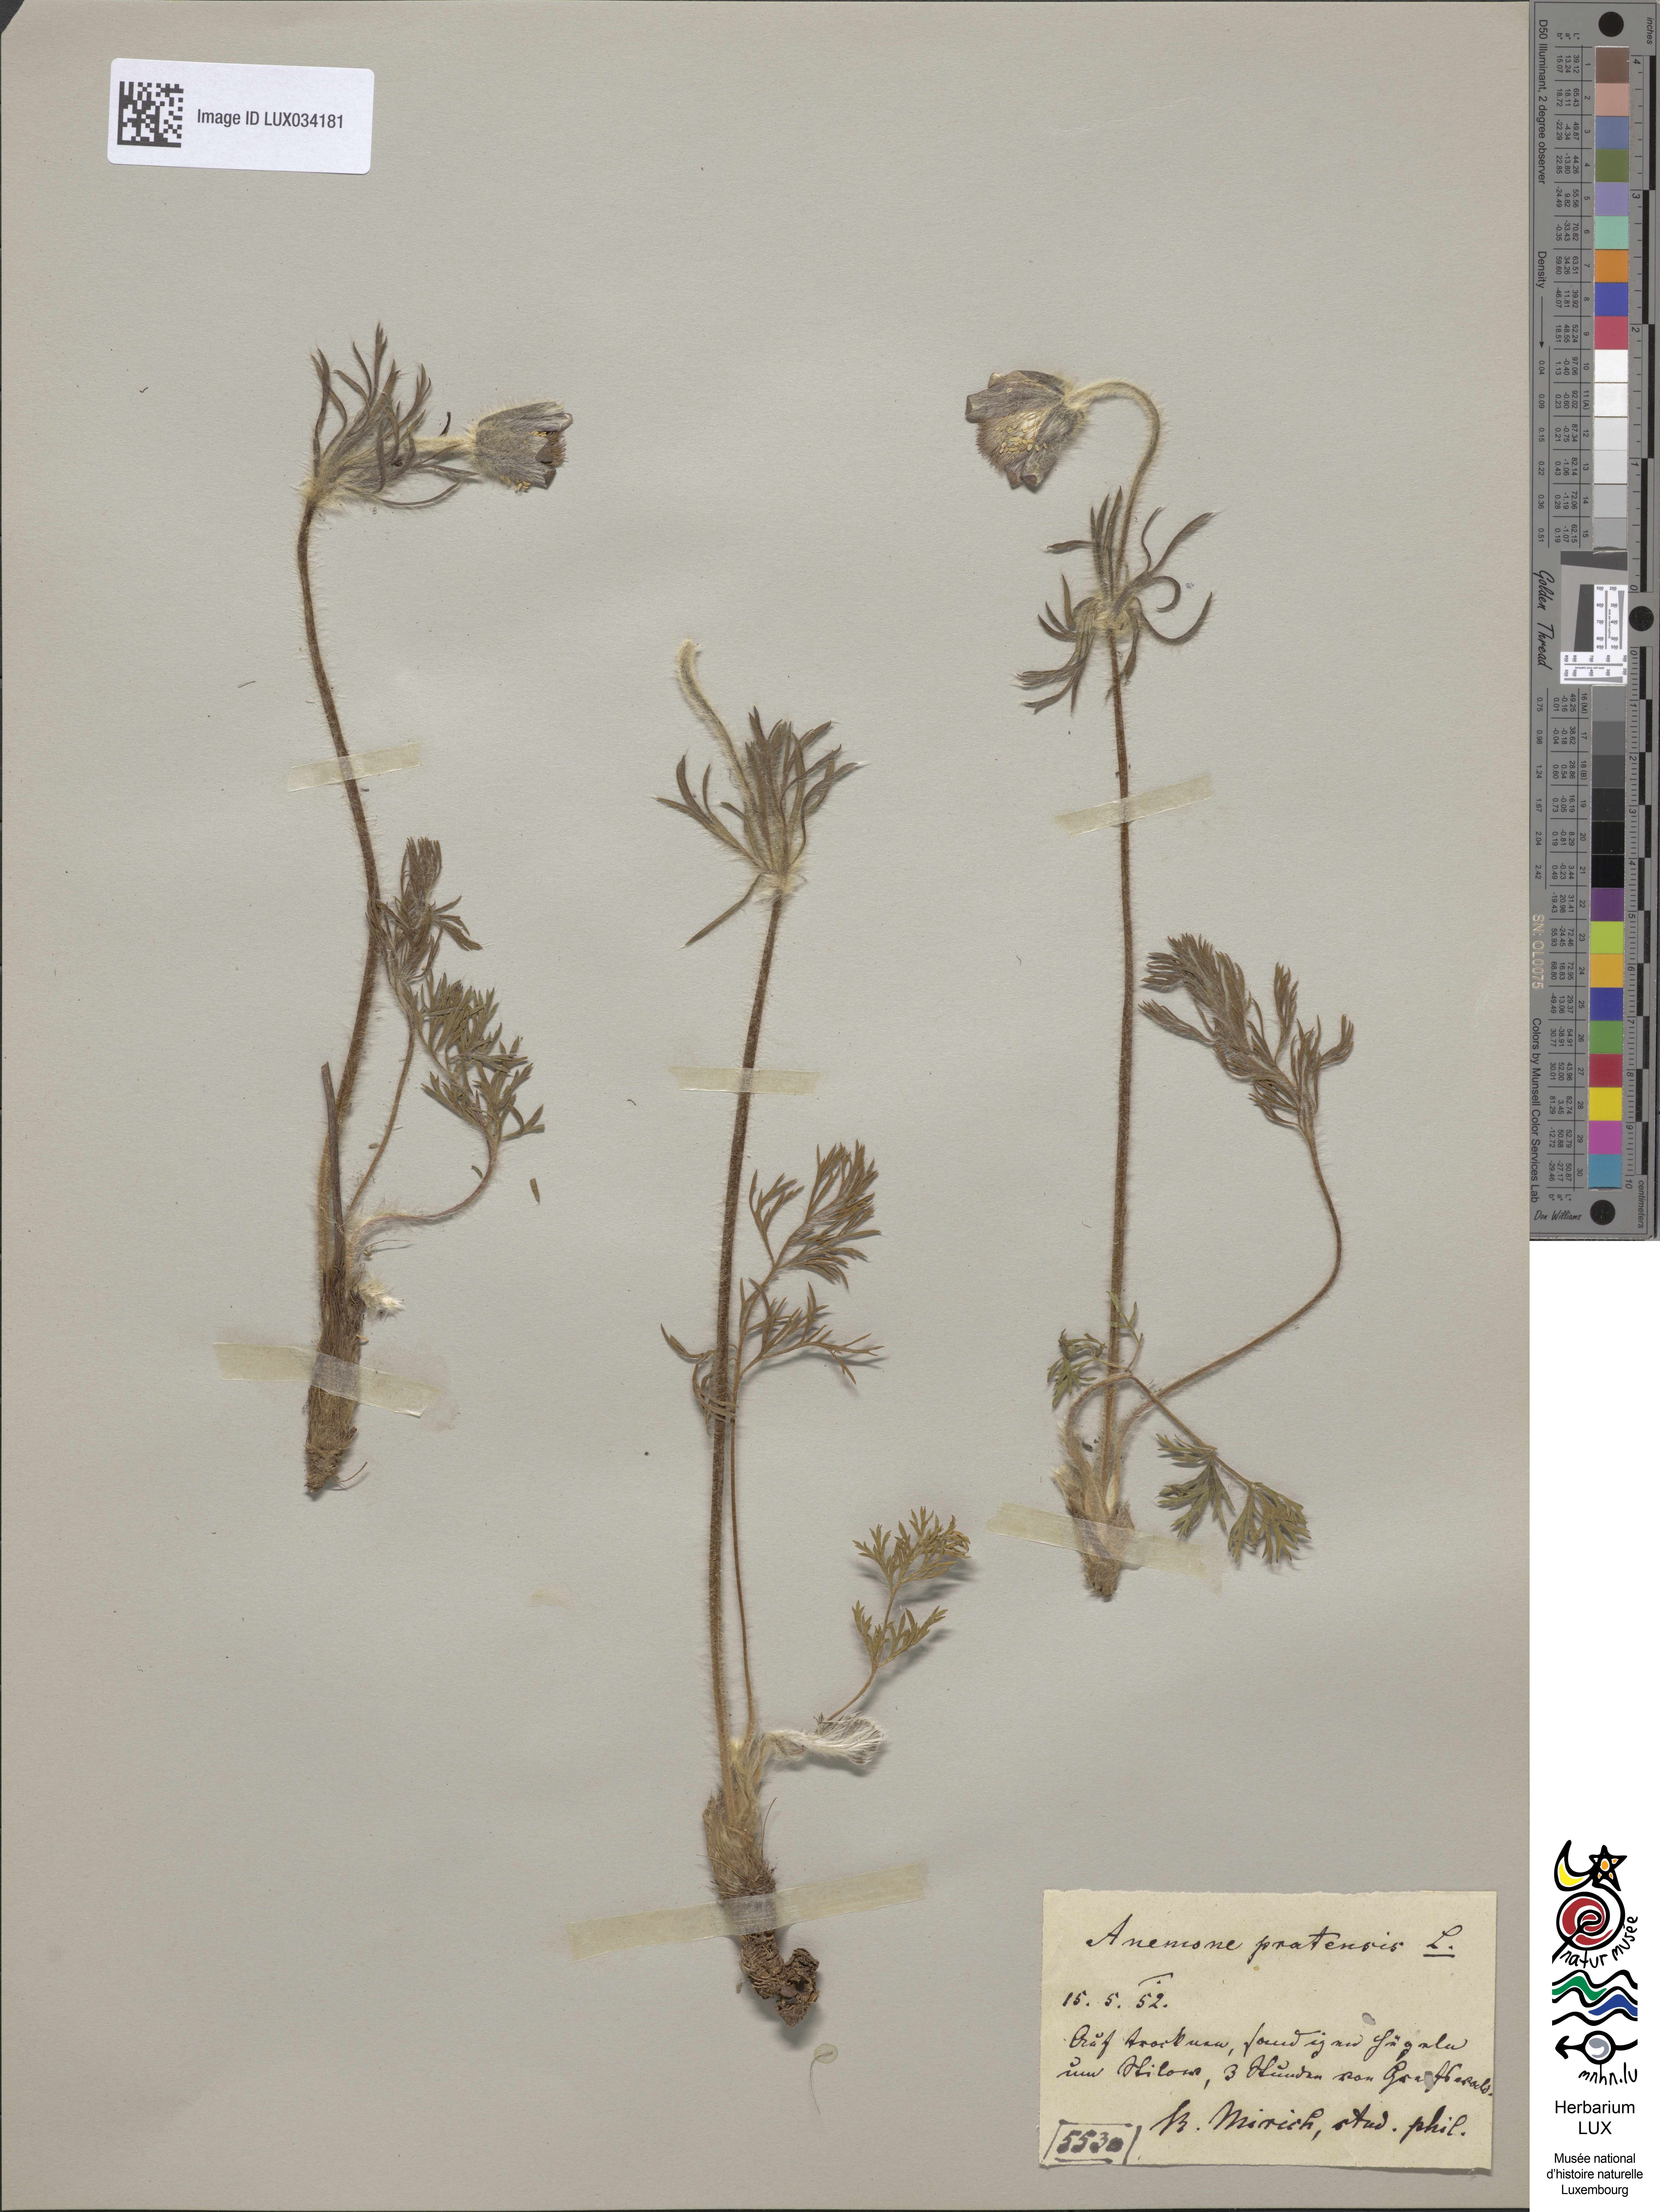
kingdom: Plantae
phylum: Tracheophyta
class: Magnoliopsida
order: Ranunculales
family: Ranunculaceae
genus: Pulsatilla
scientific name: Pulsatilla pratensis
